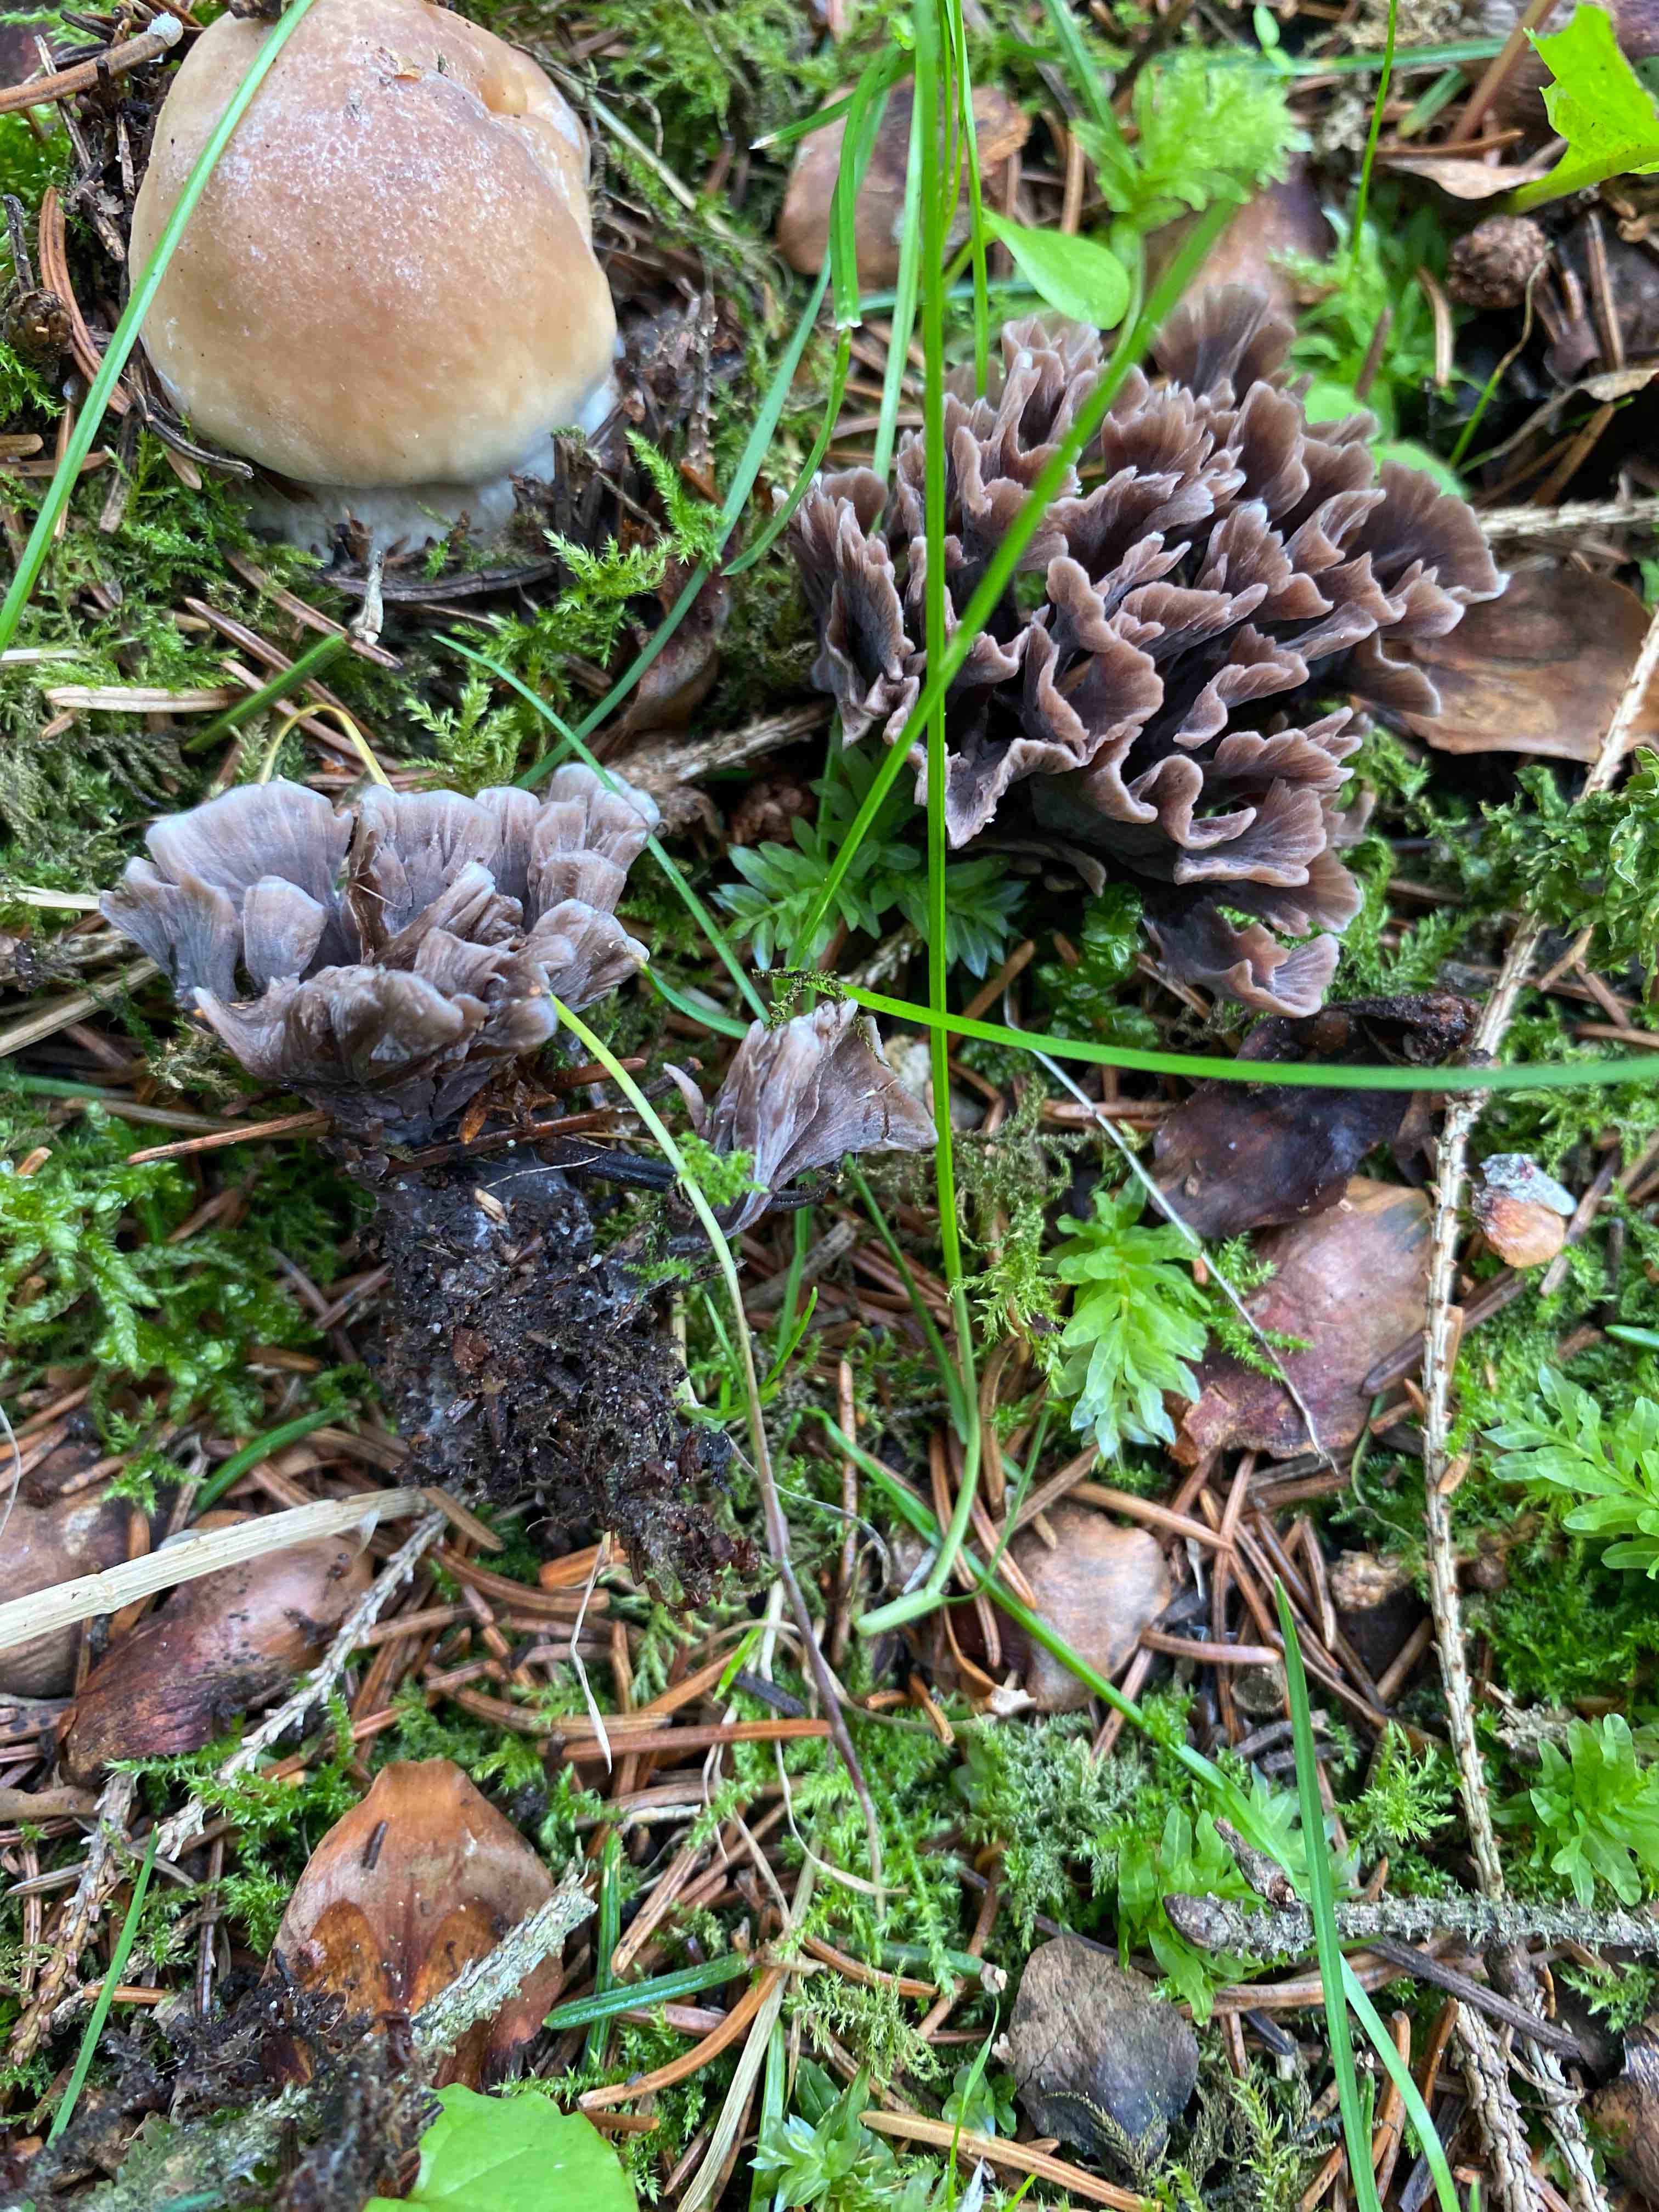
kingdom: Fungi
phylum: Basidiomycota
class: Agaricomycetes
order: Thelephorales
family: Thelephoraceae
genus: Thelephora
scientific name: Thelephora palmata
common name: grenet frynsesvamp
